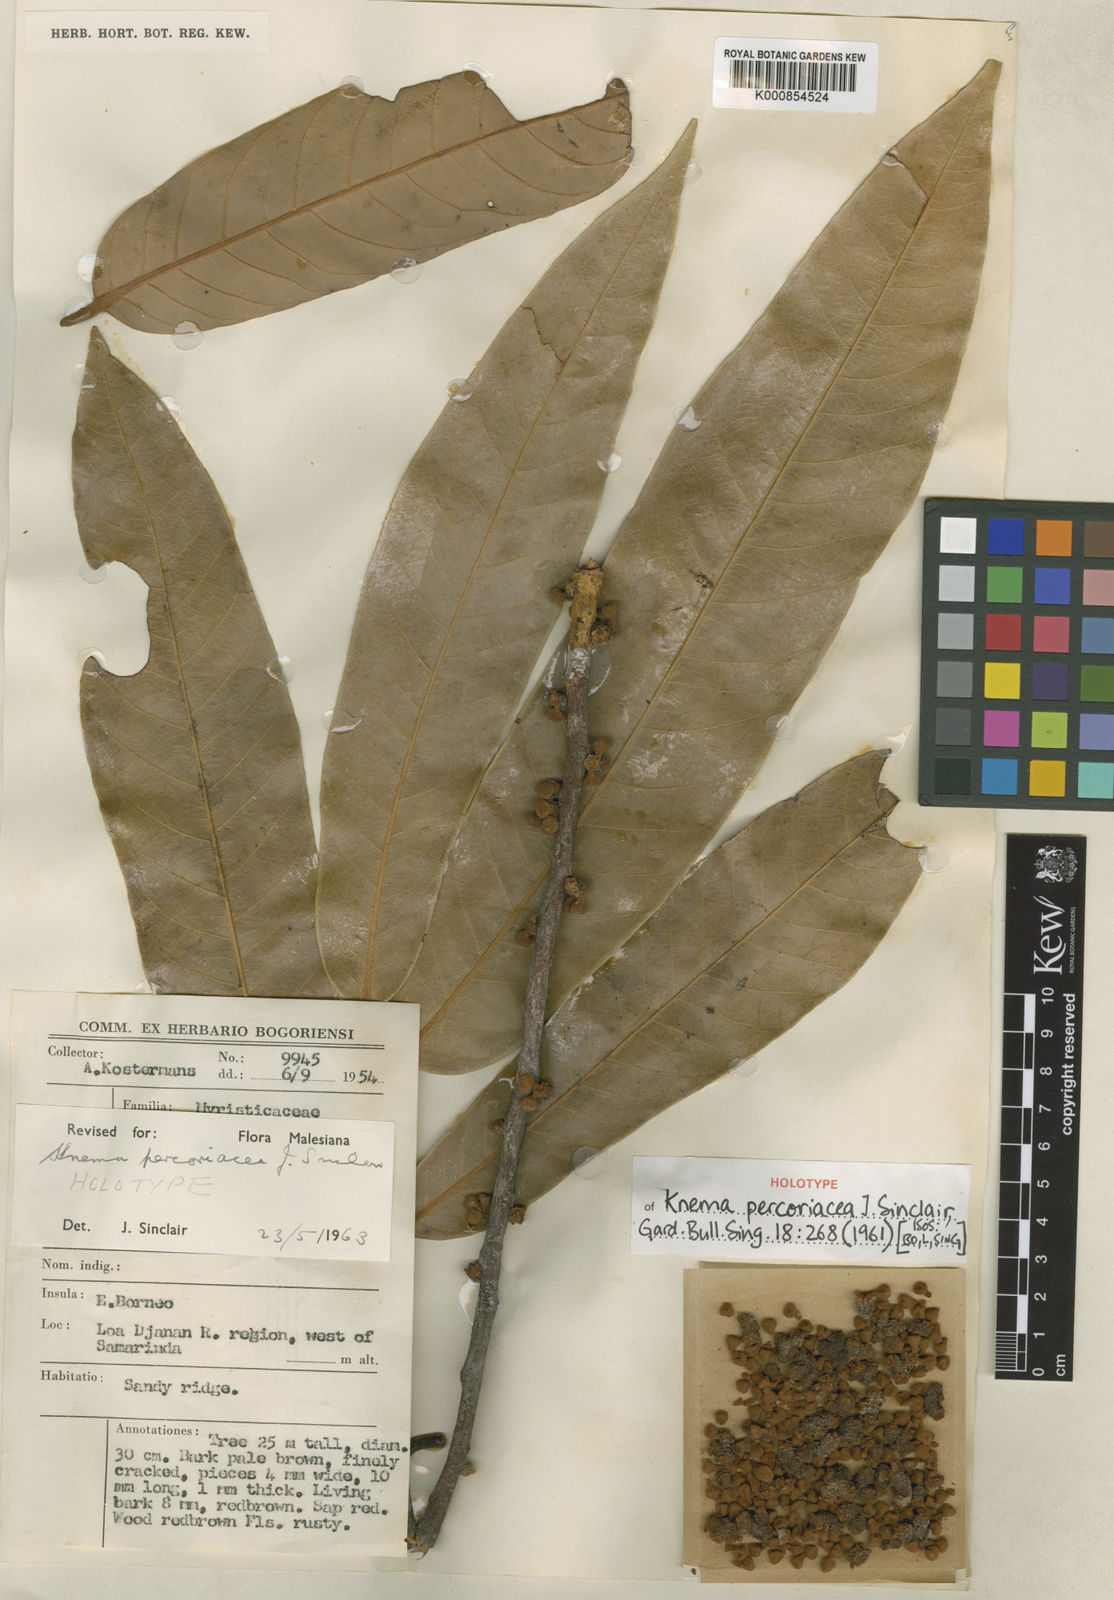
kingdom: Plantae
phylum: Tracheophyta
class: Magnoliopsida
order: Magnoliales
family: Myristicaceae
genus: Knema
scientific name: Knema percoriacea
